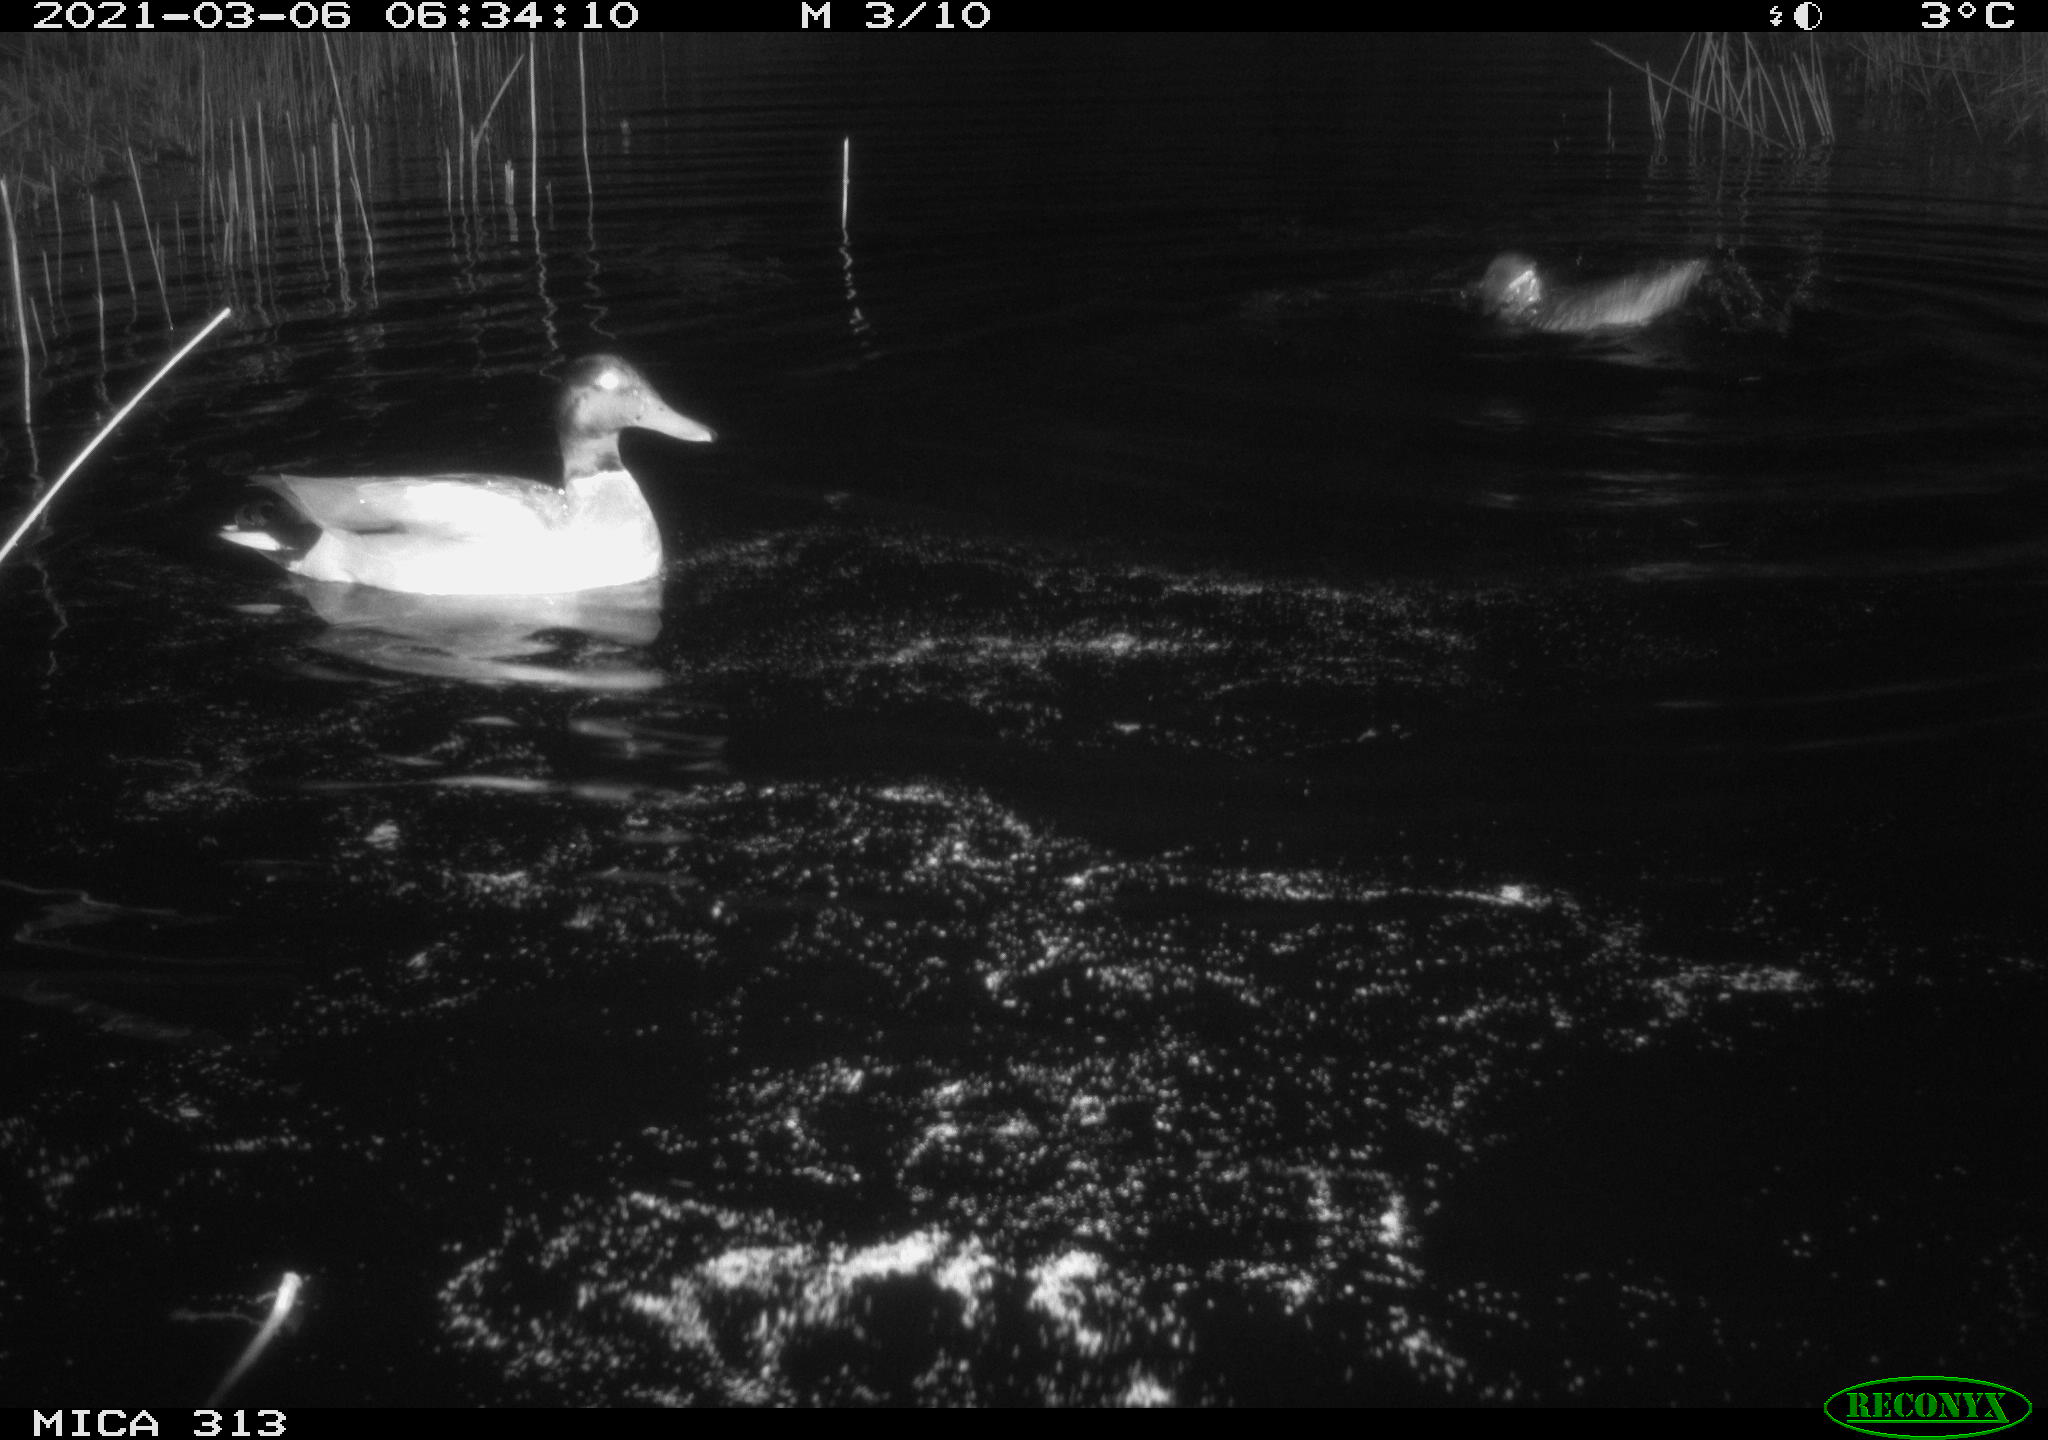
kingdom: Animalia
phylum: Chordata
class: Aves
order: Anseriformes
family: Anatidae
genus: Anas
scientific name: Anas platyrhynchos
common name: Mallard
